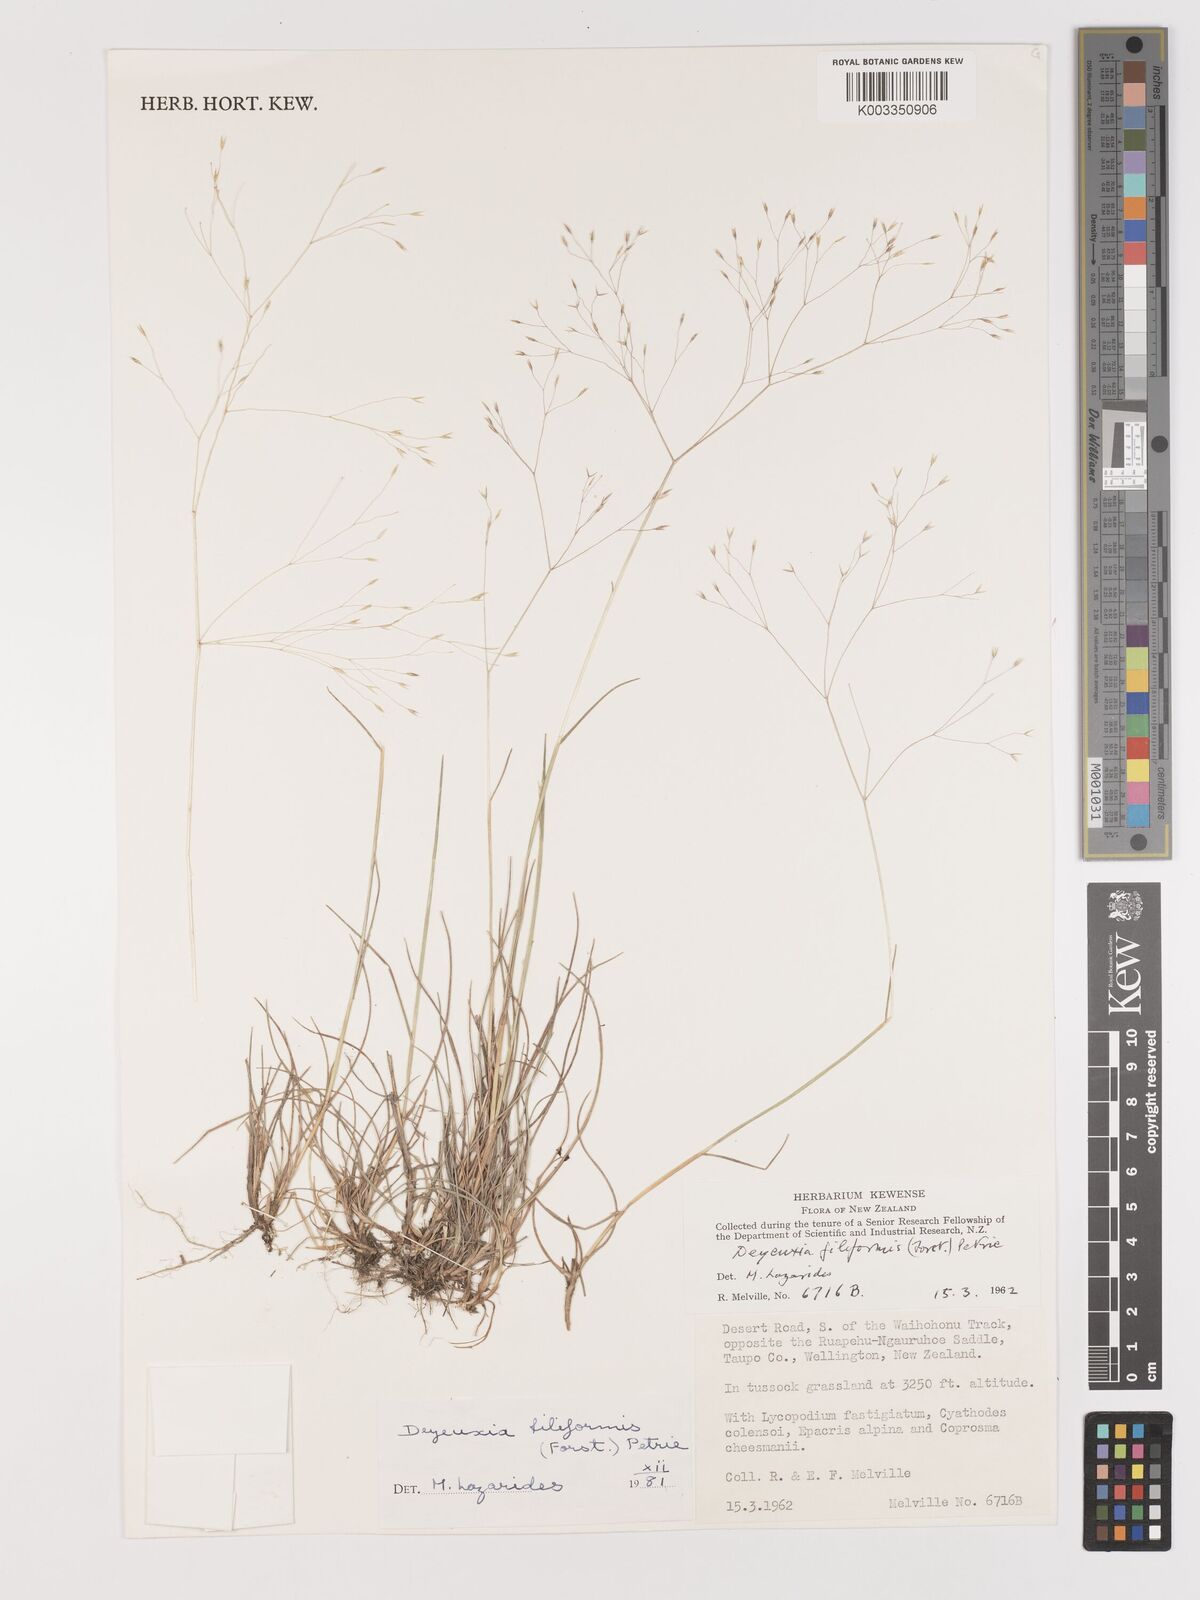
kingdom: Plantae
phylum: Tracheophyta
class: Liliopsida
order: Poales
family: Poaceae
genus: Lachnagrostis
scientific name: Lachnagrostis filiformis
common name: Bentgrass
